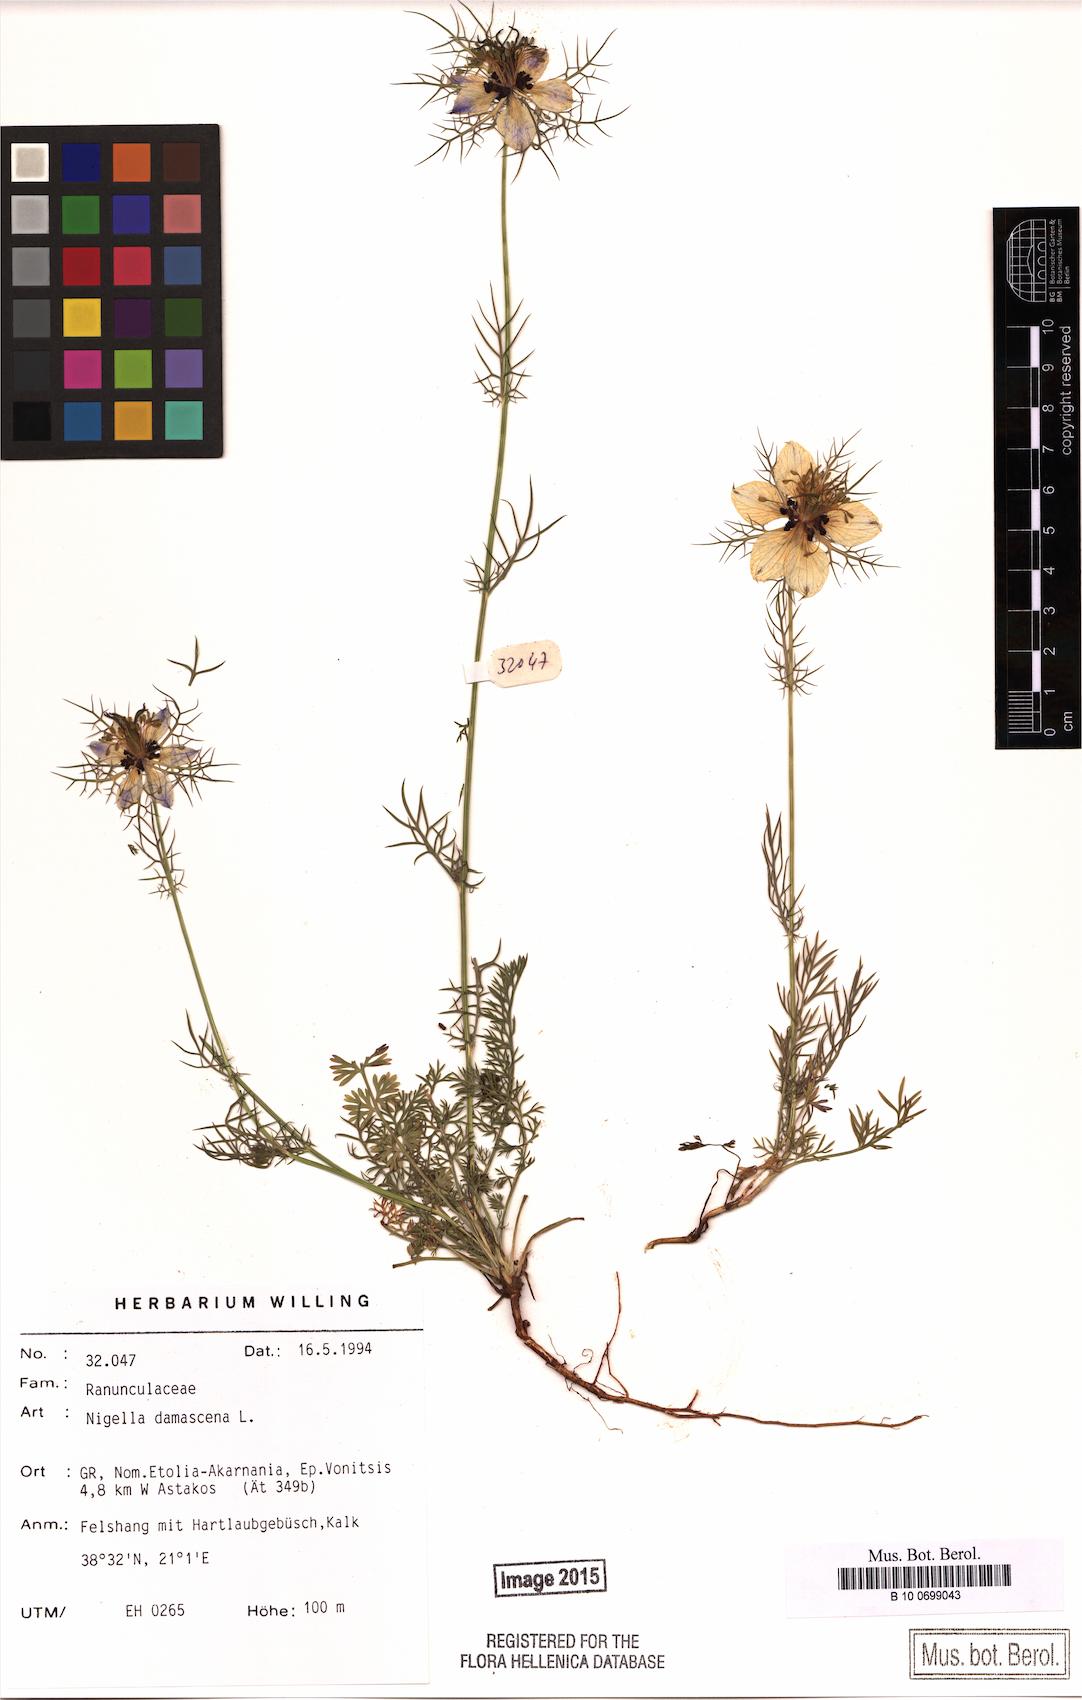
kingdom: Plantae
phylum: Tracheophyta
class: Magnoliopsida
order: Ranunculales
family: Ranunculaceae
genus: Nigella
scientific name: Nigella damascena
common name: Love-in-a-mist
